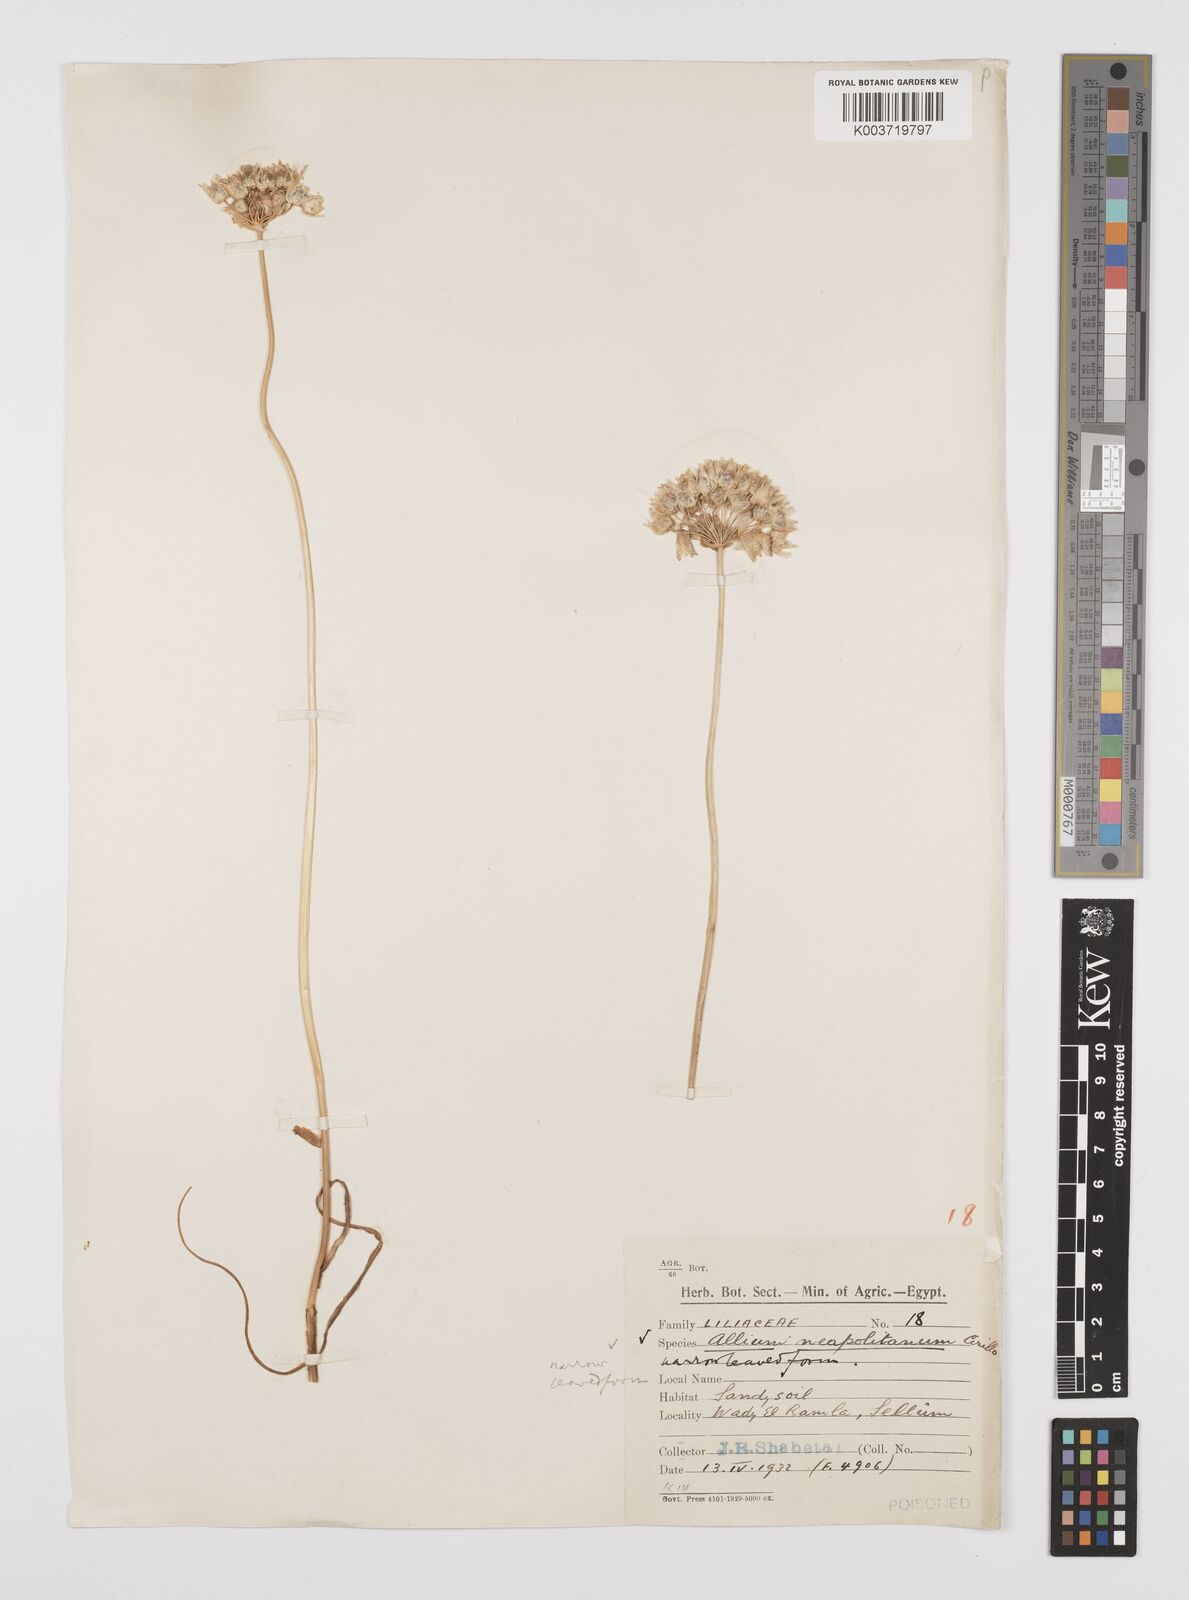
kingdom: Plantae
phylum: Tracheophyta
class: Liliopsida
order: Asparagales
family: Amaryllidaceae
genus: Allium
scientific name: Allium neapolitanum
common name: Neapolitan garlic
